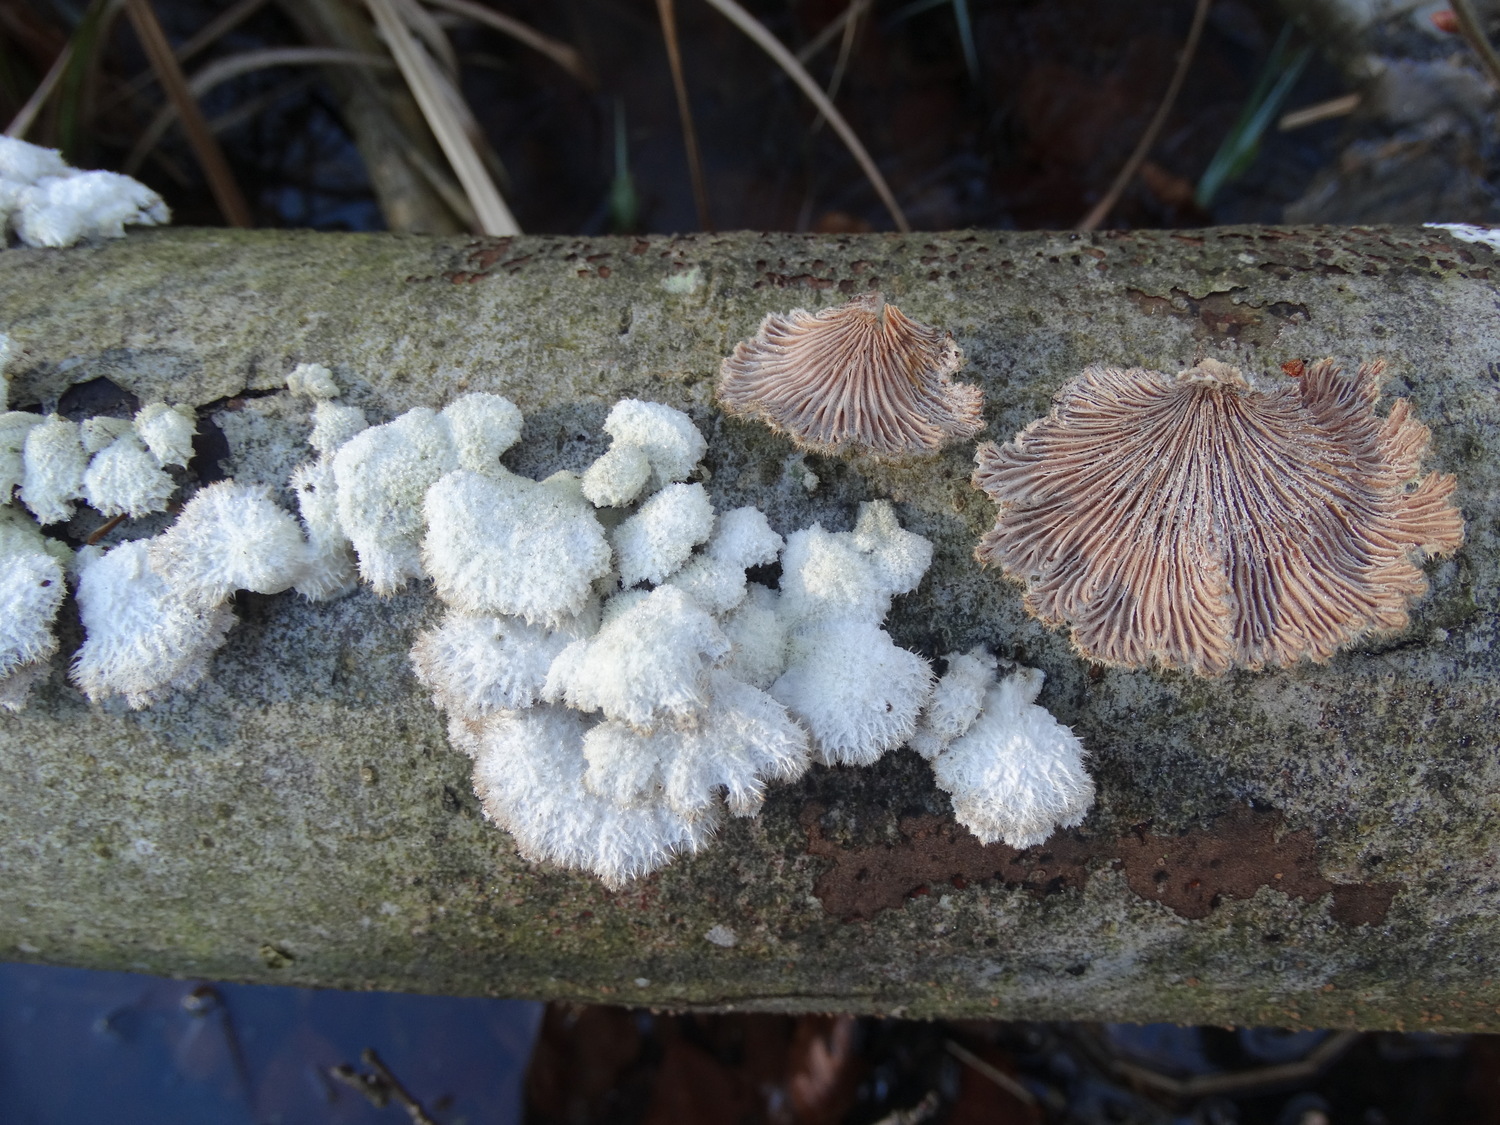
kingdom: Fungi
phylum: Basidiomycota
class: Agaricomycetes
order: Agaricales
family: Schizophyllaceae
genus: Schizophyllum
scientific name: Schizophyllum commune
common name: kløvblad
